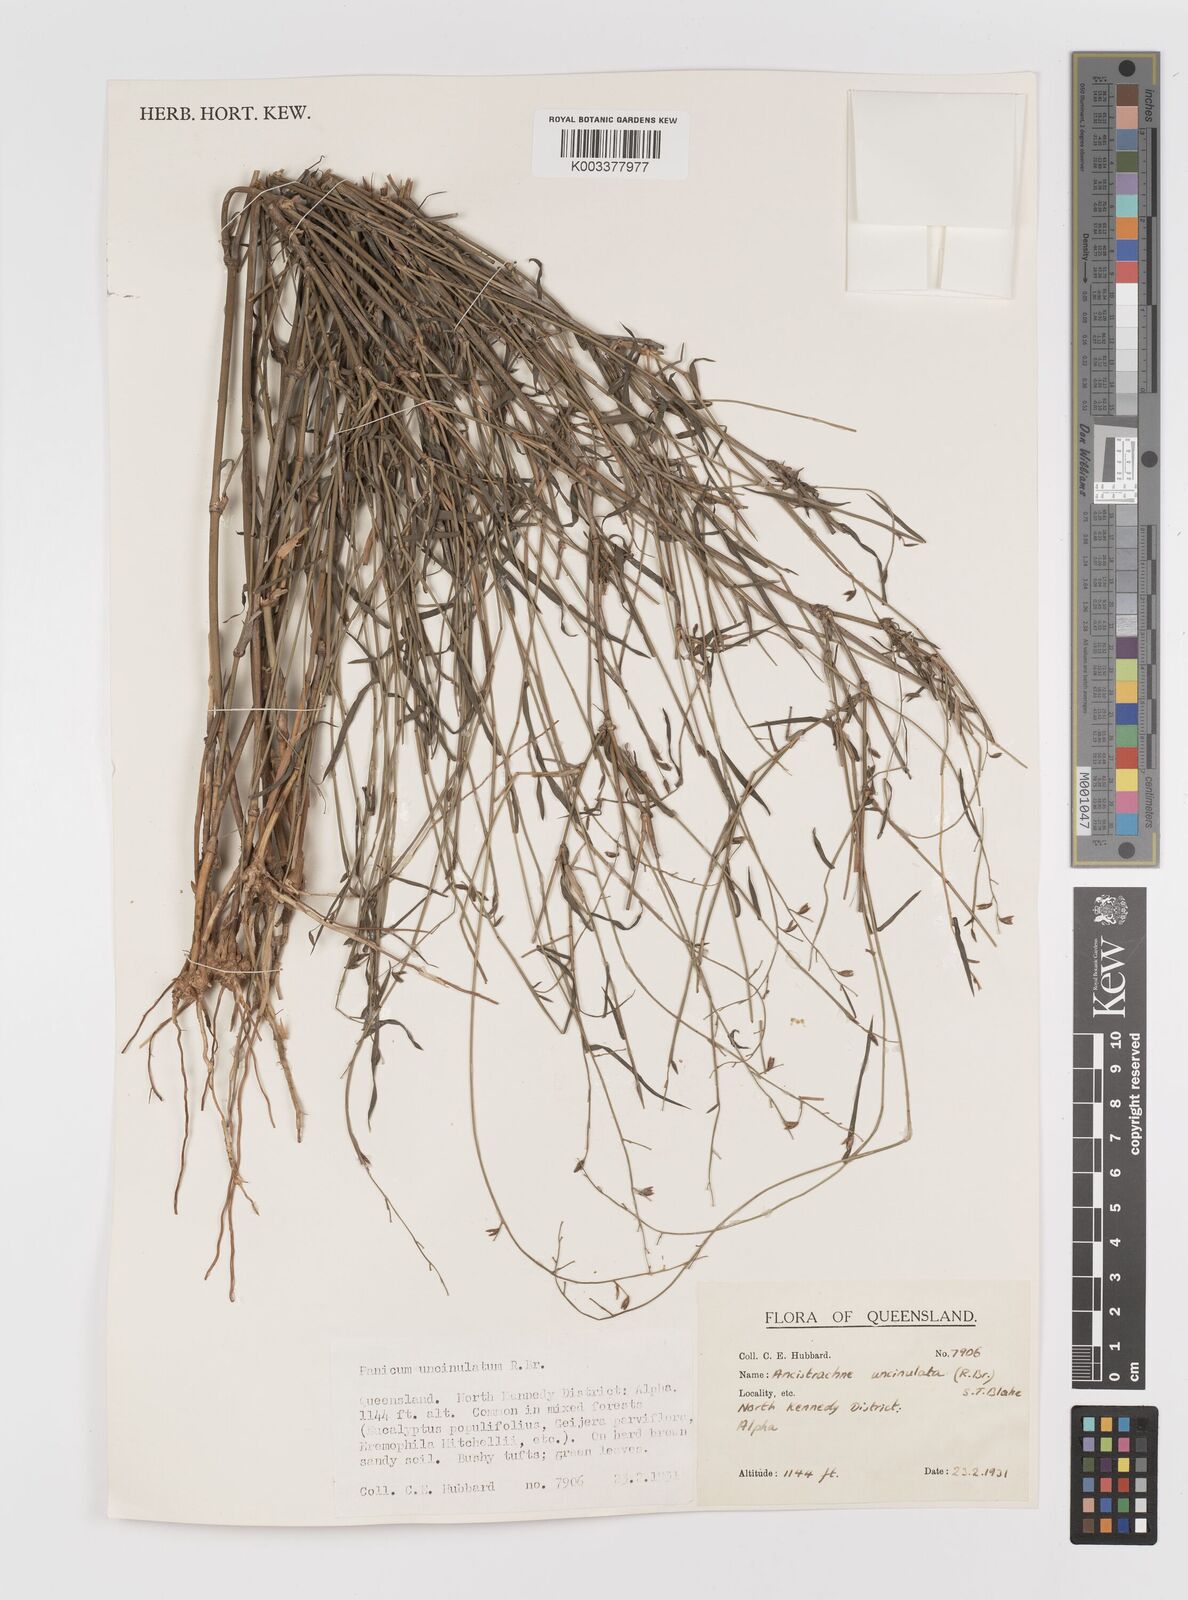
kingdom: Plantae
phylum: Tracheophyta
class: Liliopsida
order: Poales
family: Poaceae
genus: Ancistrachne
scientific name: Ancistrachne uncinulata
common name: Hooky grass
